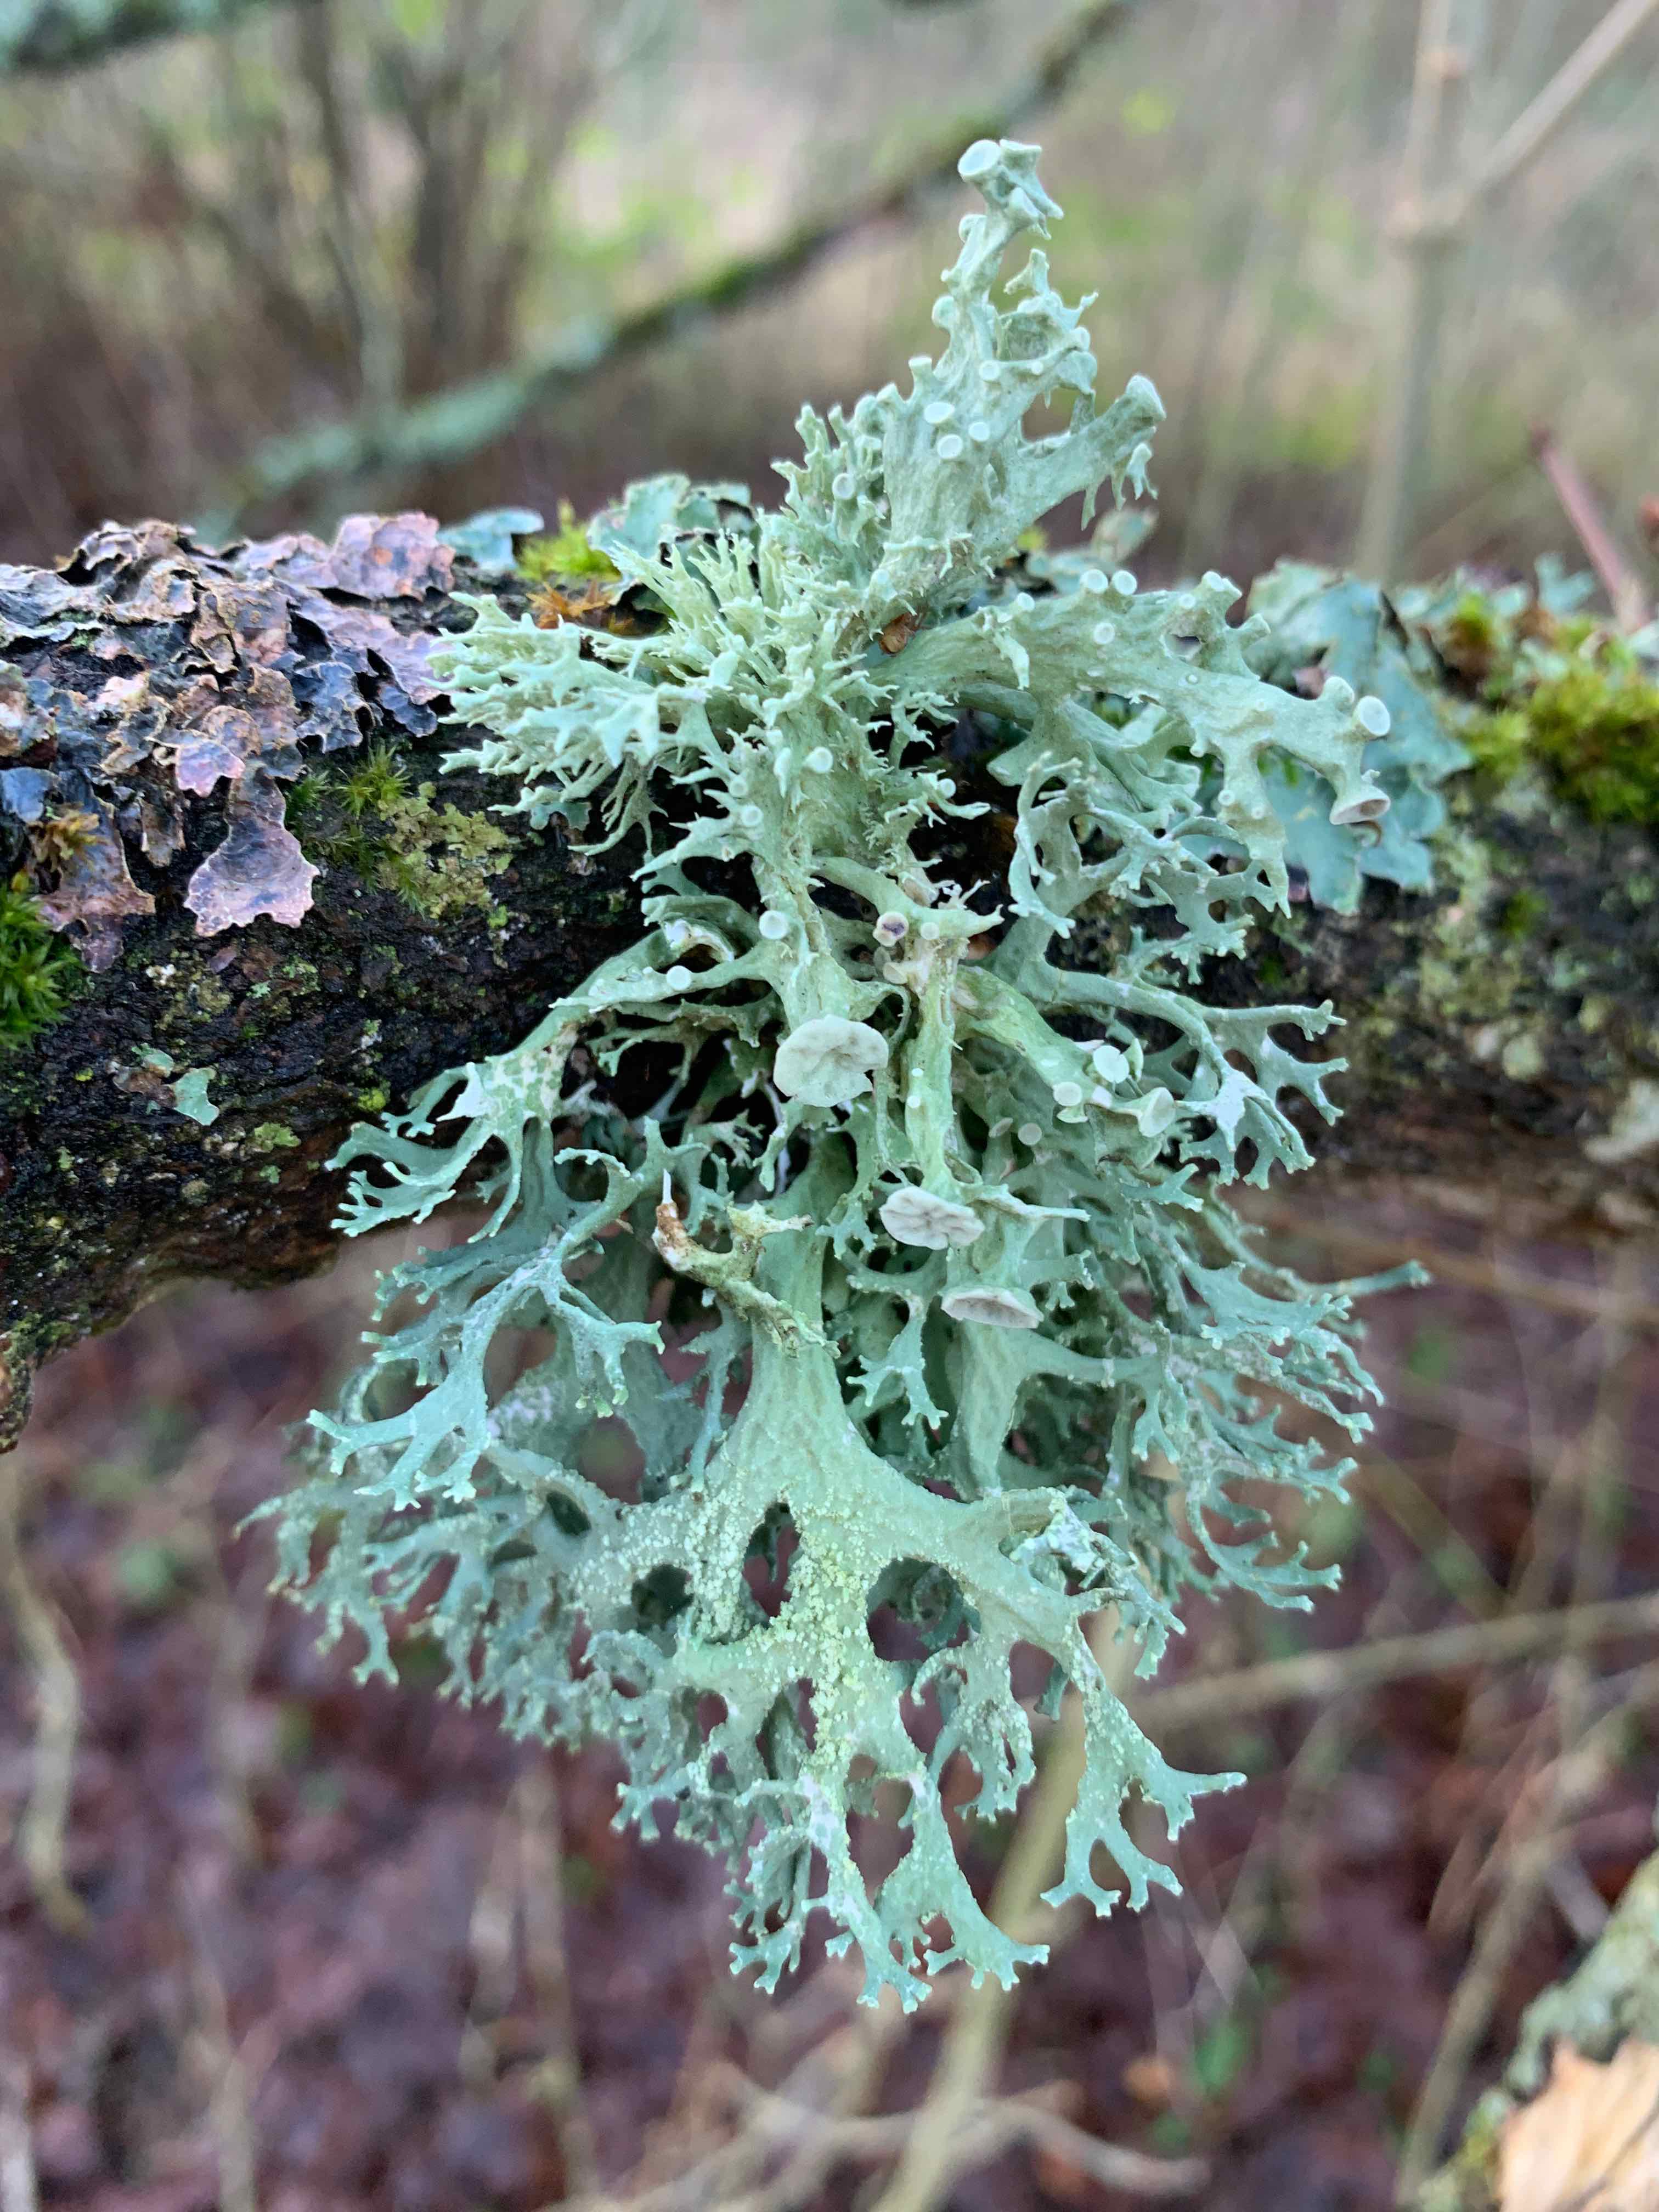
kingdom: Fungi
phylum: Ascomycota
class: Lecanoromycetes
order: Lecanorales
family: Ramalinaceae
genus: Ramalina
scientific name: Ramalina fastigiata
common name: tue-grenlav
